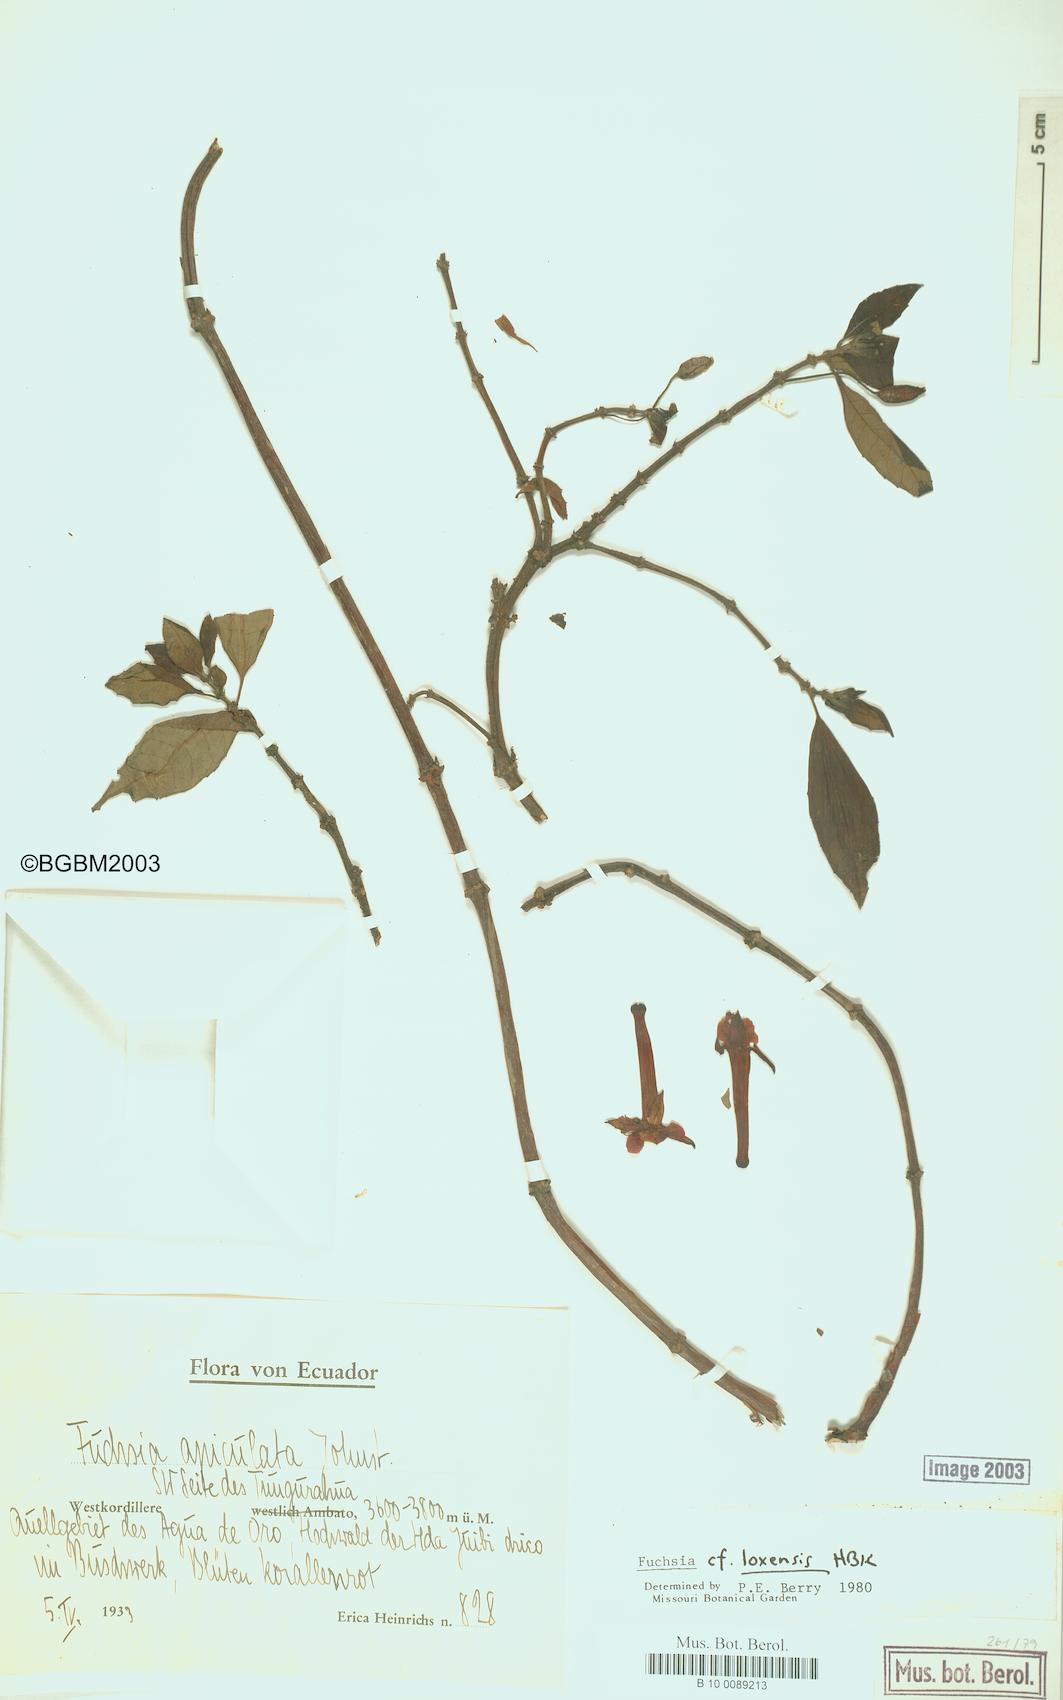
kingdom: Plantae
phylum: Tracheophyta
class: Magnoliopsida
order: Myrtales
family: Onagraceae
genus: Fuchsia
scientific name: Fuchsia loxensis
